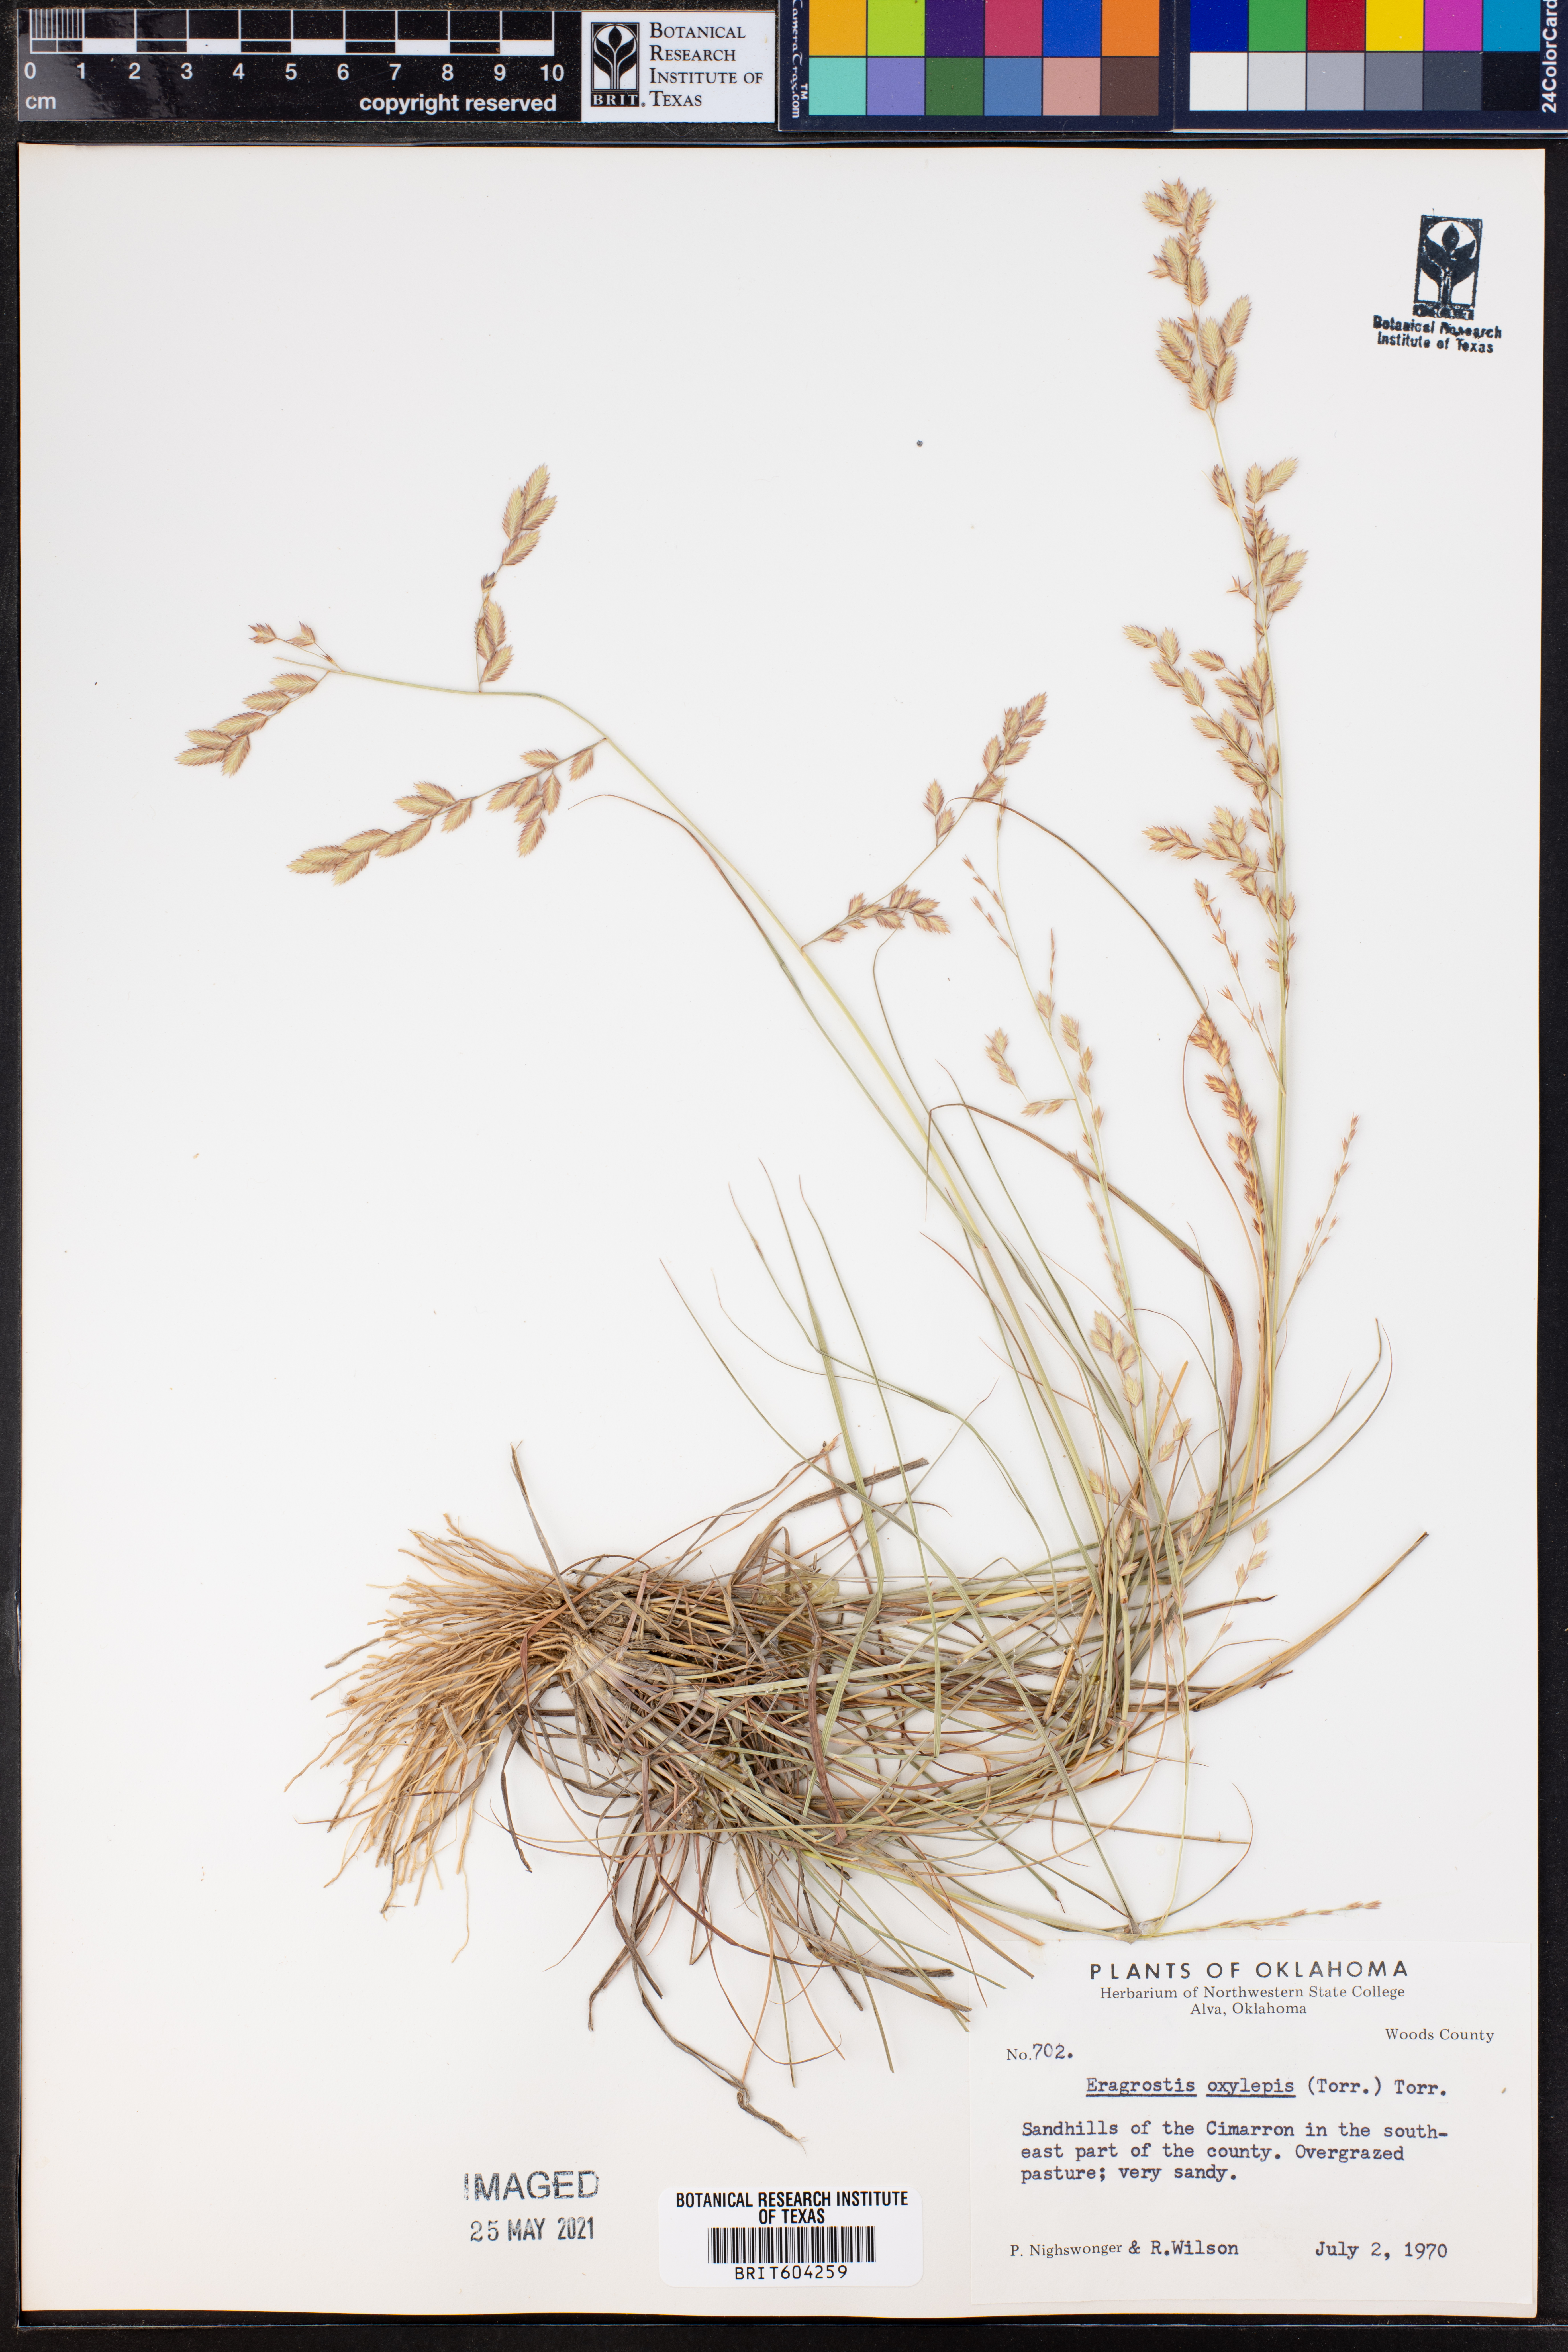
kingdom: Plantae
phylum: Tracheophyta
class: Liliopsida
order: Poales
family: Poaceae
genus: Eragrostis
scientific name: Eragrostis secundiflora
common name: Red love grass
